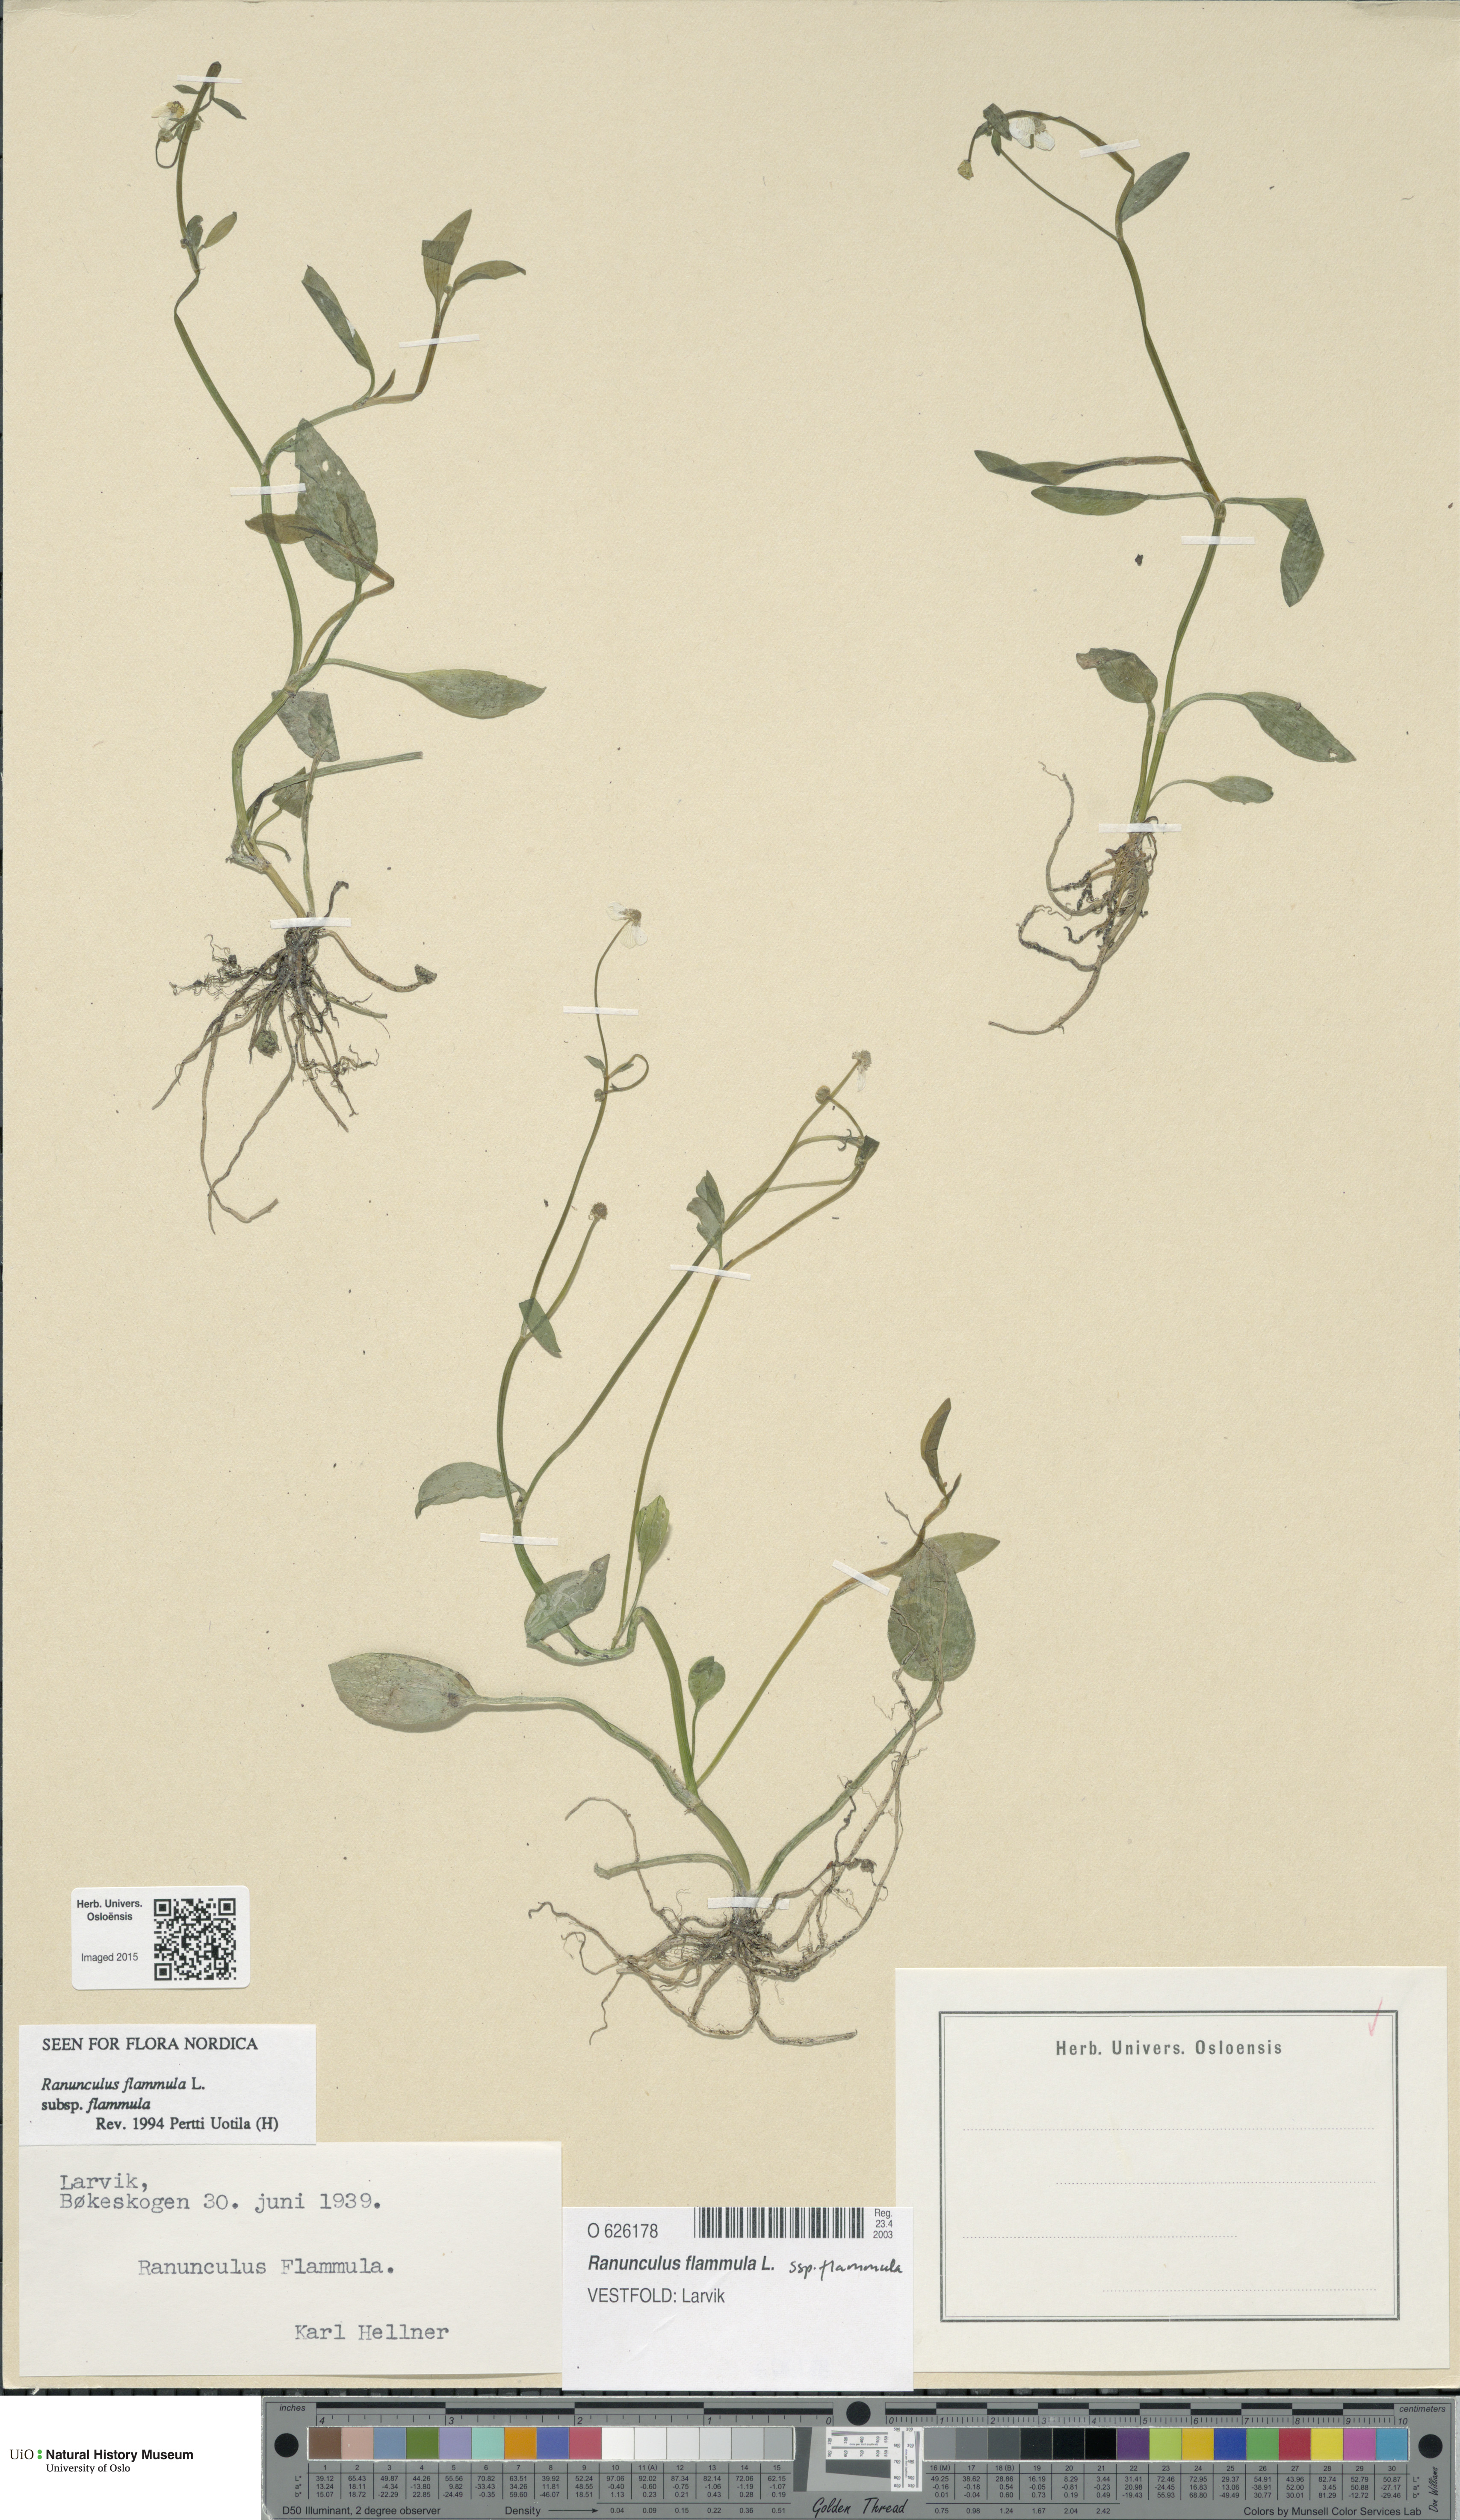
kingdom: Plantae
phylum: Tracheophyta
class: Magnoliopsida
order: Ranunculales
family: Ranunculaceae
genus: Ranunculus
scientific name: Ranunculus flammula
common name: Lesser spearwort
